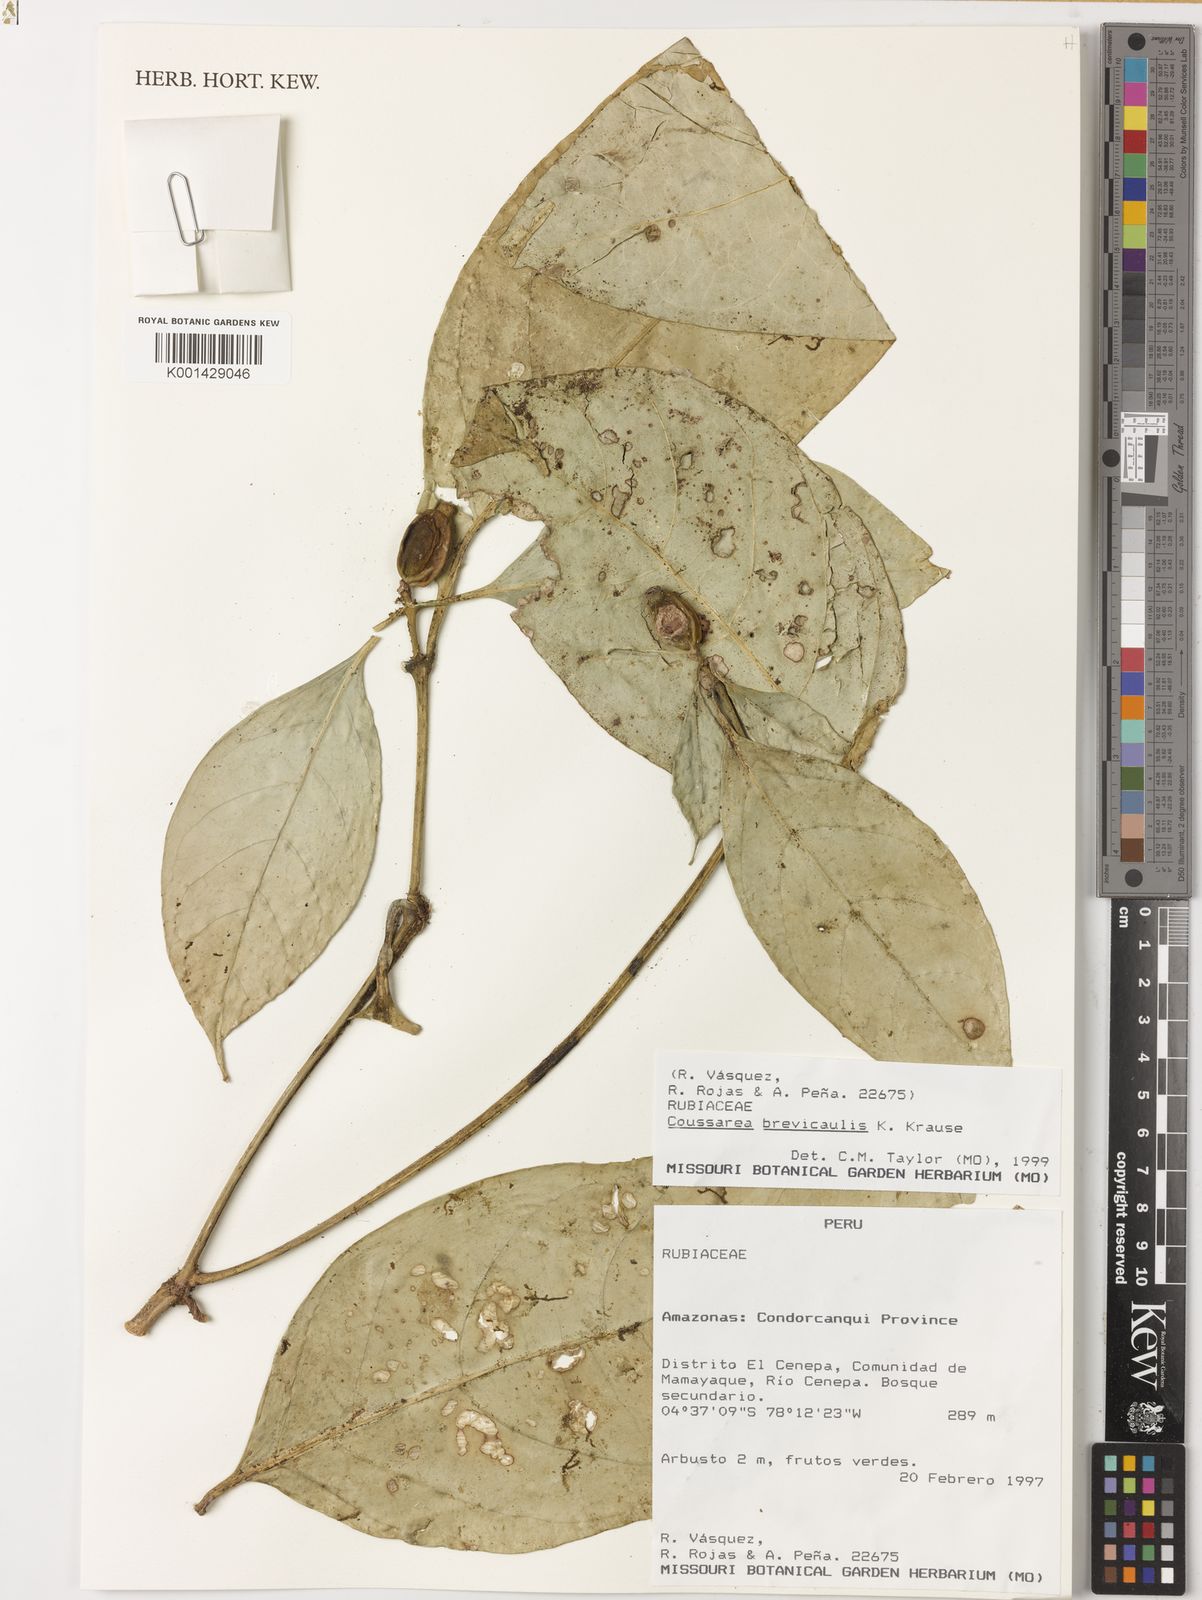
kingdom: Plantae
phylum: Tracheophyta
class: Magnoliopsida
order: Gentianales
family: Rubiaceae
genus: Coussarea
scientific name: Coussarea brevicaulis
